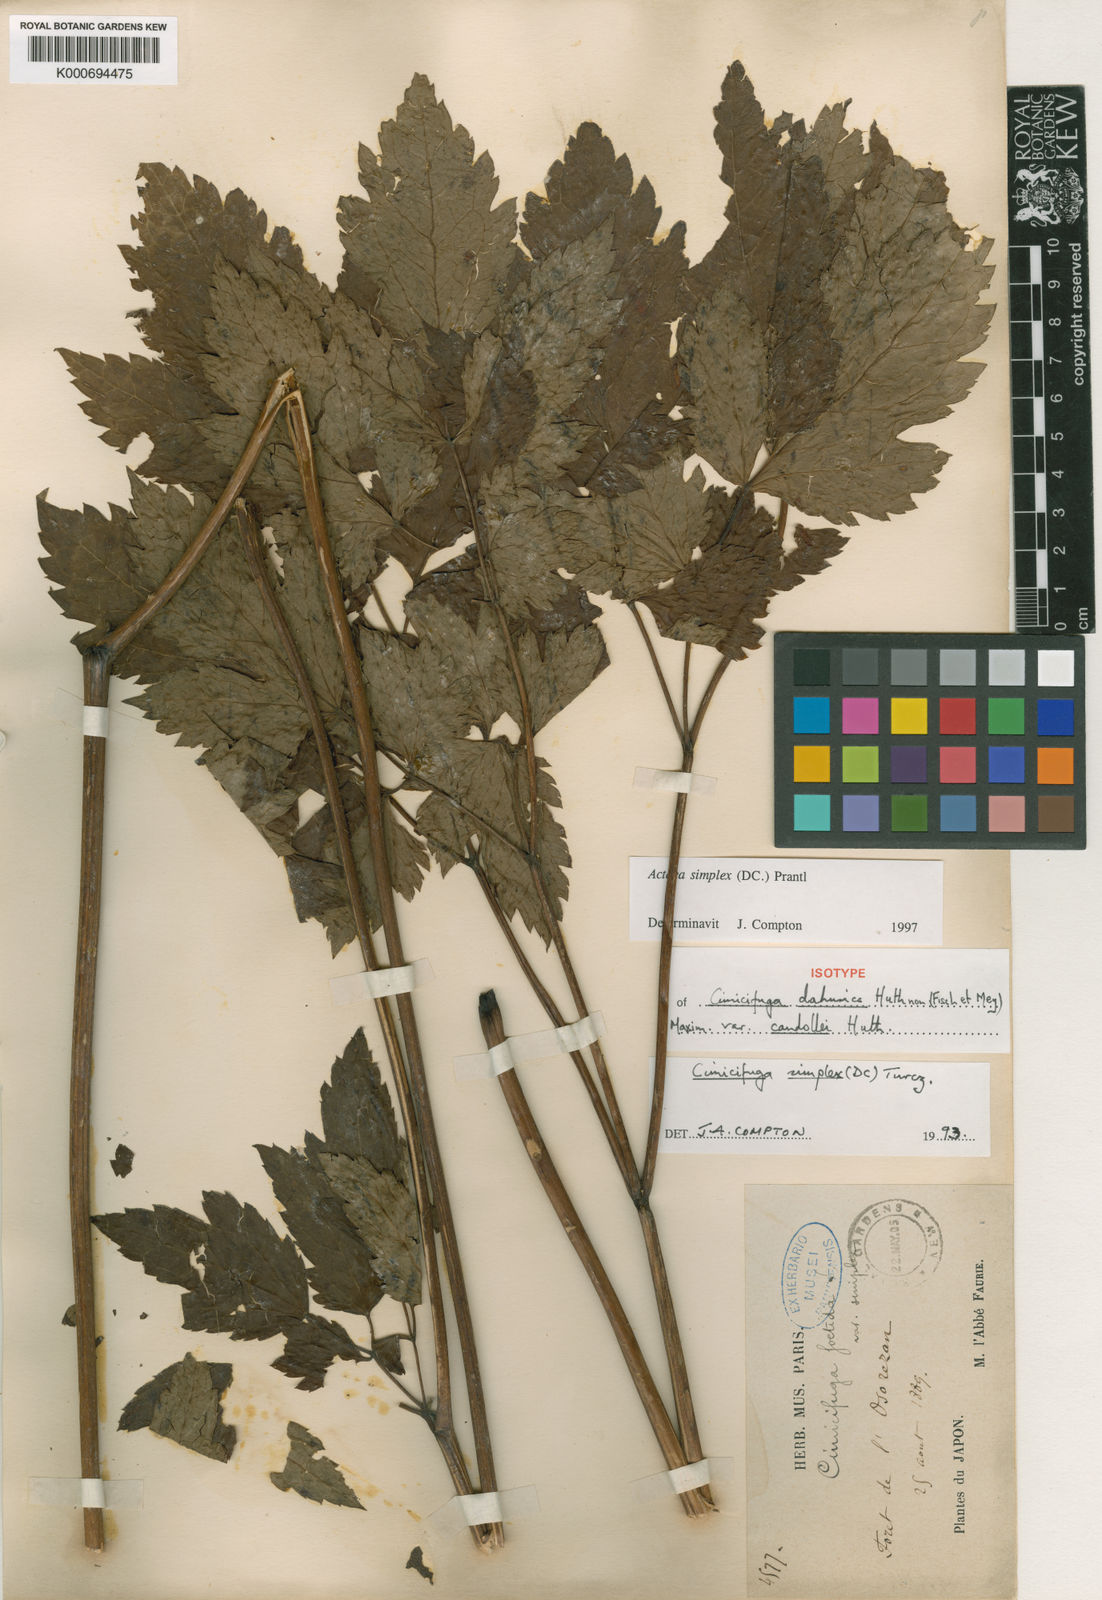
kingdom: Plantae
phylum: Tracheophyta
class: Magnoliopsida
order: Ranunculales
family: Ranunculaceae
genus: Actaea
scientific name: Actaea simplex
